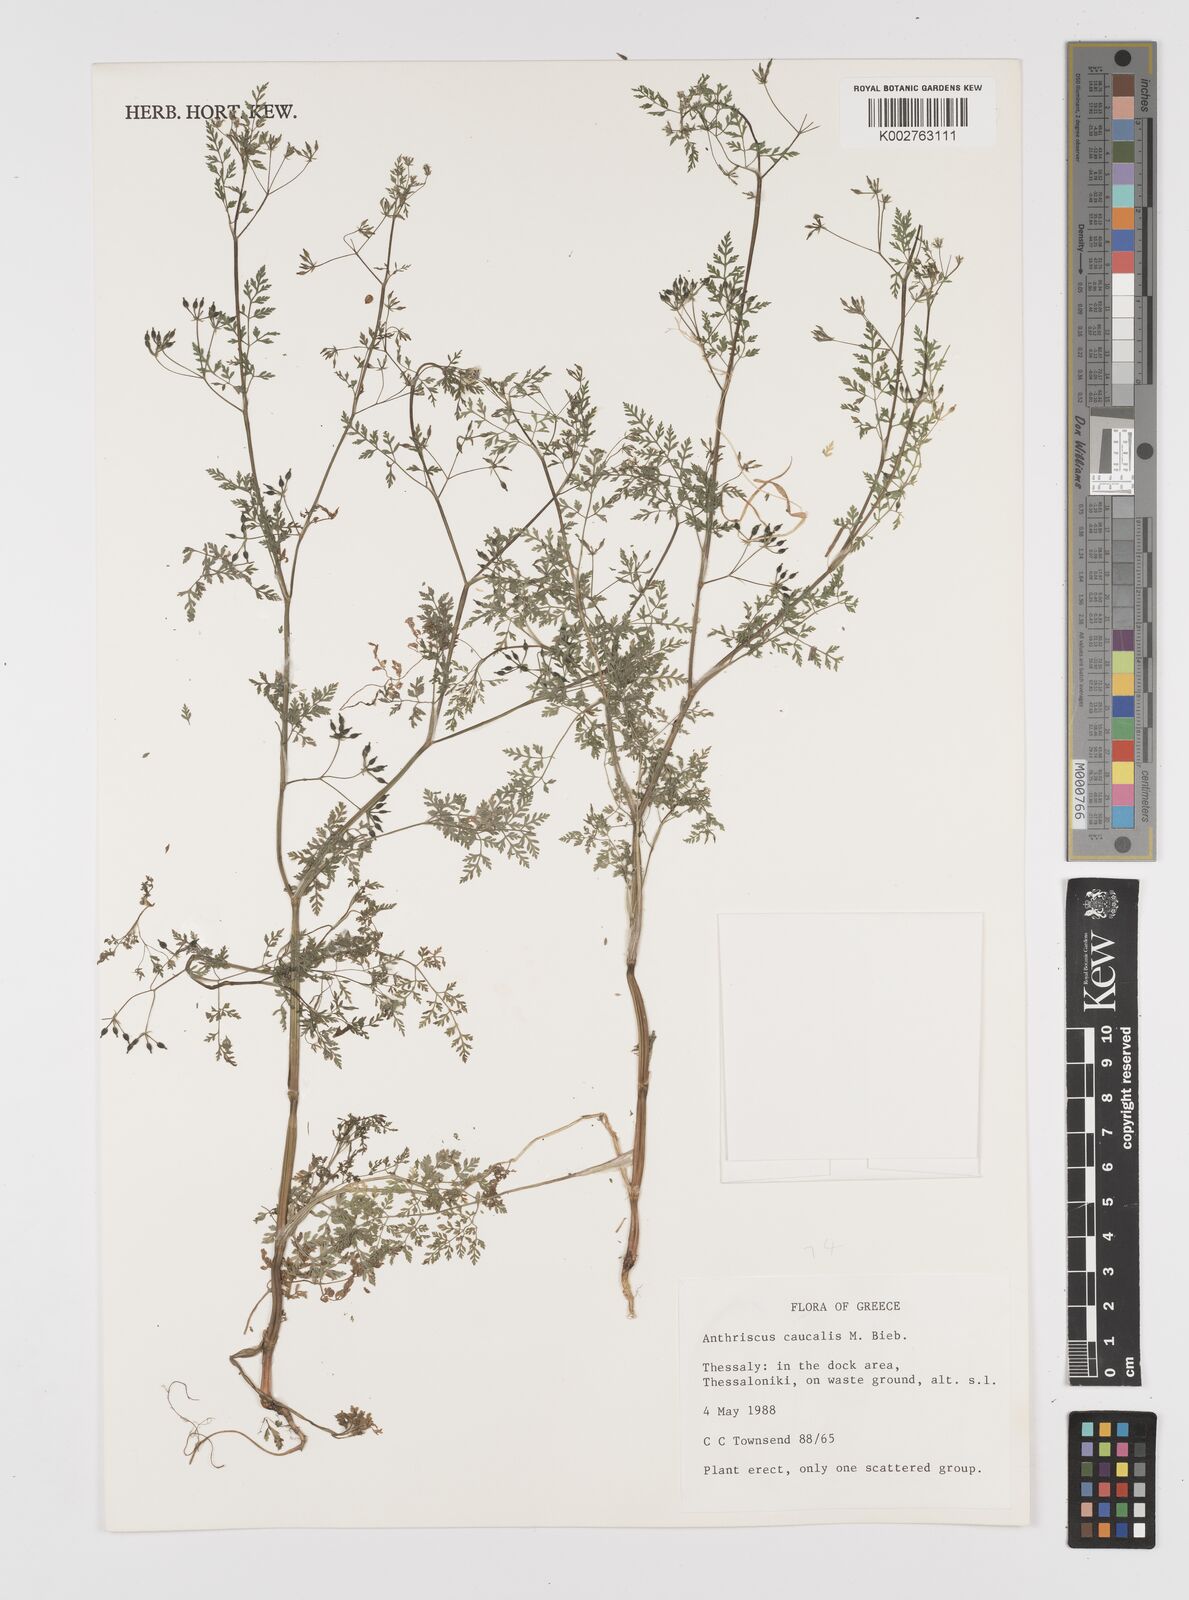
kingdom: Plantae
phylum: Tracheophyta
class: Magnoliopsida
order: Apiales
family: Apiaceae
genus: Anthriscus
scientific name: Anthriscus caucalis
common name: Bur chervil
